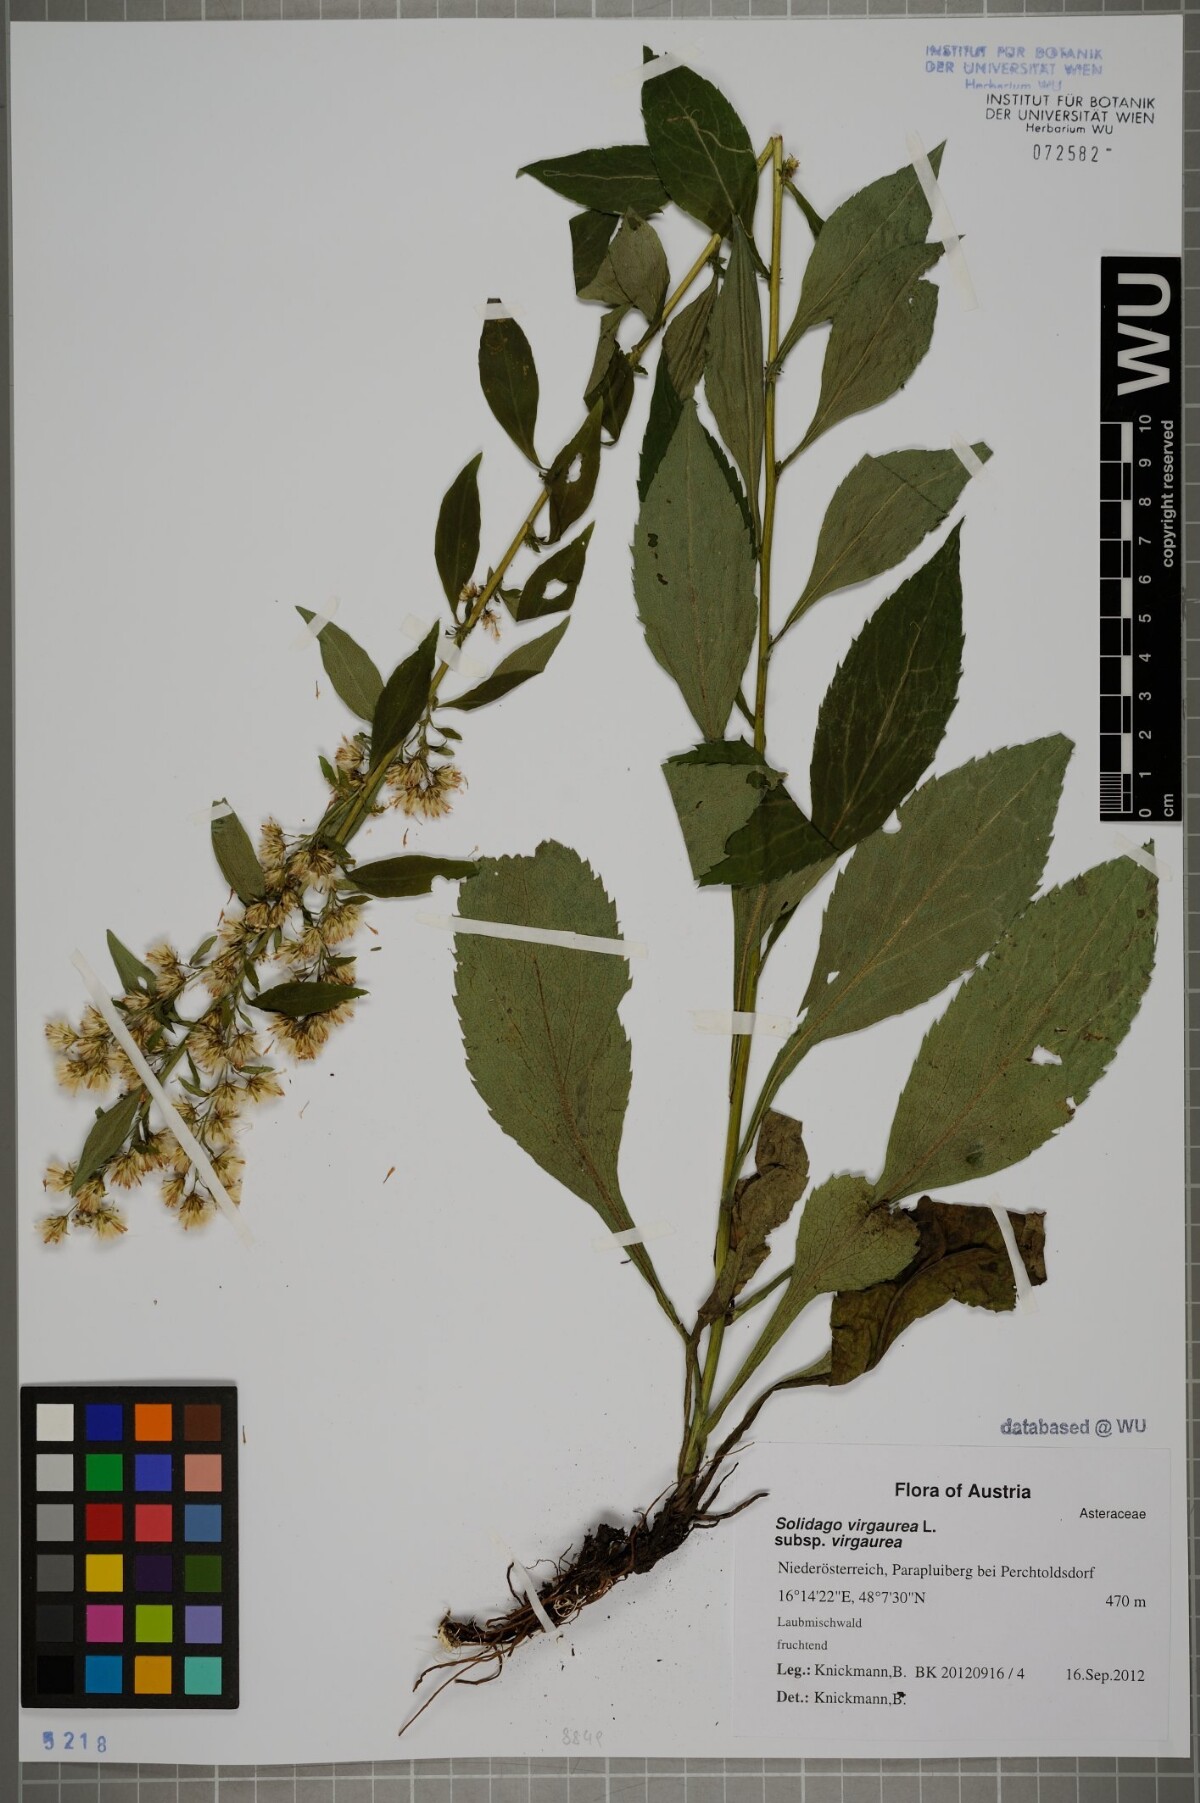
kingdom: Plantae
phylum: Tracheophyta
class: Magnoliopsida
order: Asterales
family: Asteraceae
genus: Solidago
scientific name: Solidago virgaurea
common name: Goldenrod
